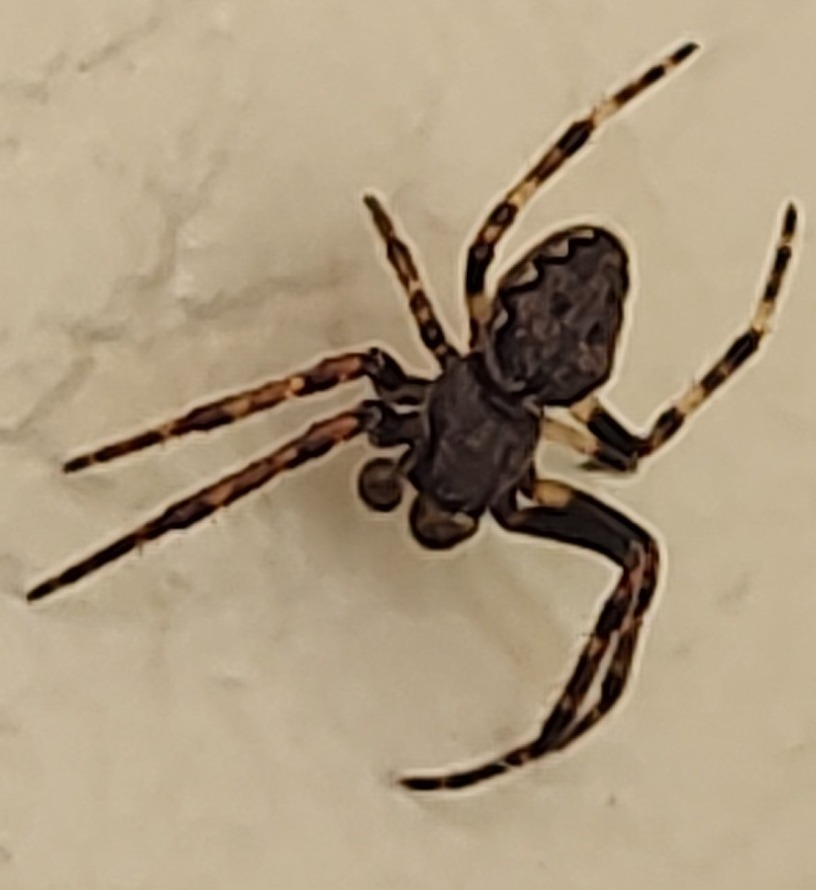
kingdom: Animalia
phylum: Arthropoda
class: Arachnida
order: Araneae
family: Araneidae
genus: Nuctenea
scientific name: Nuctenea umbratica
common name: Flad hjulspinder
